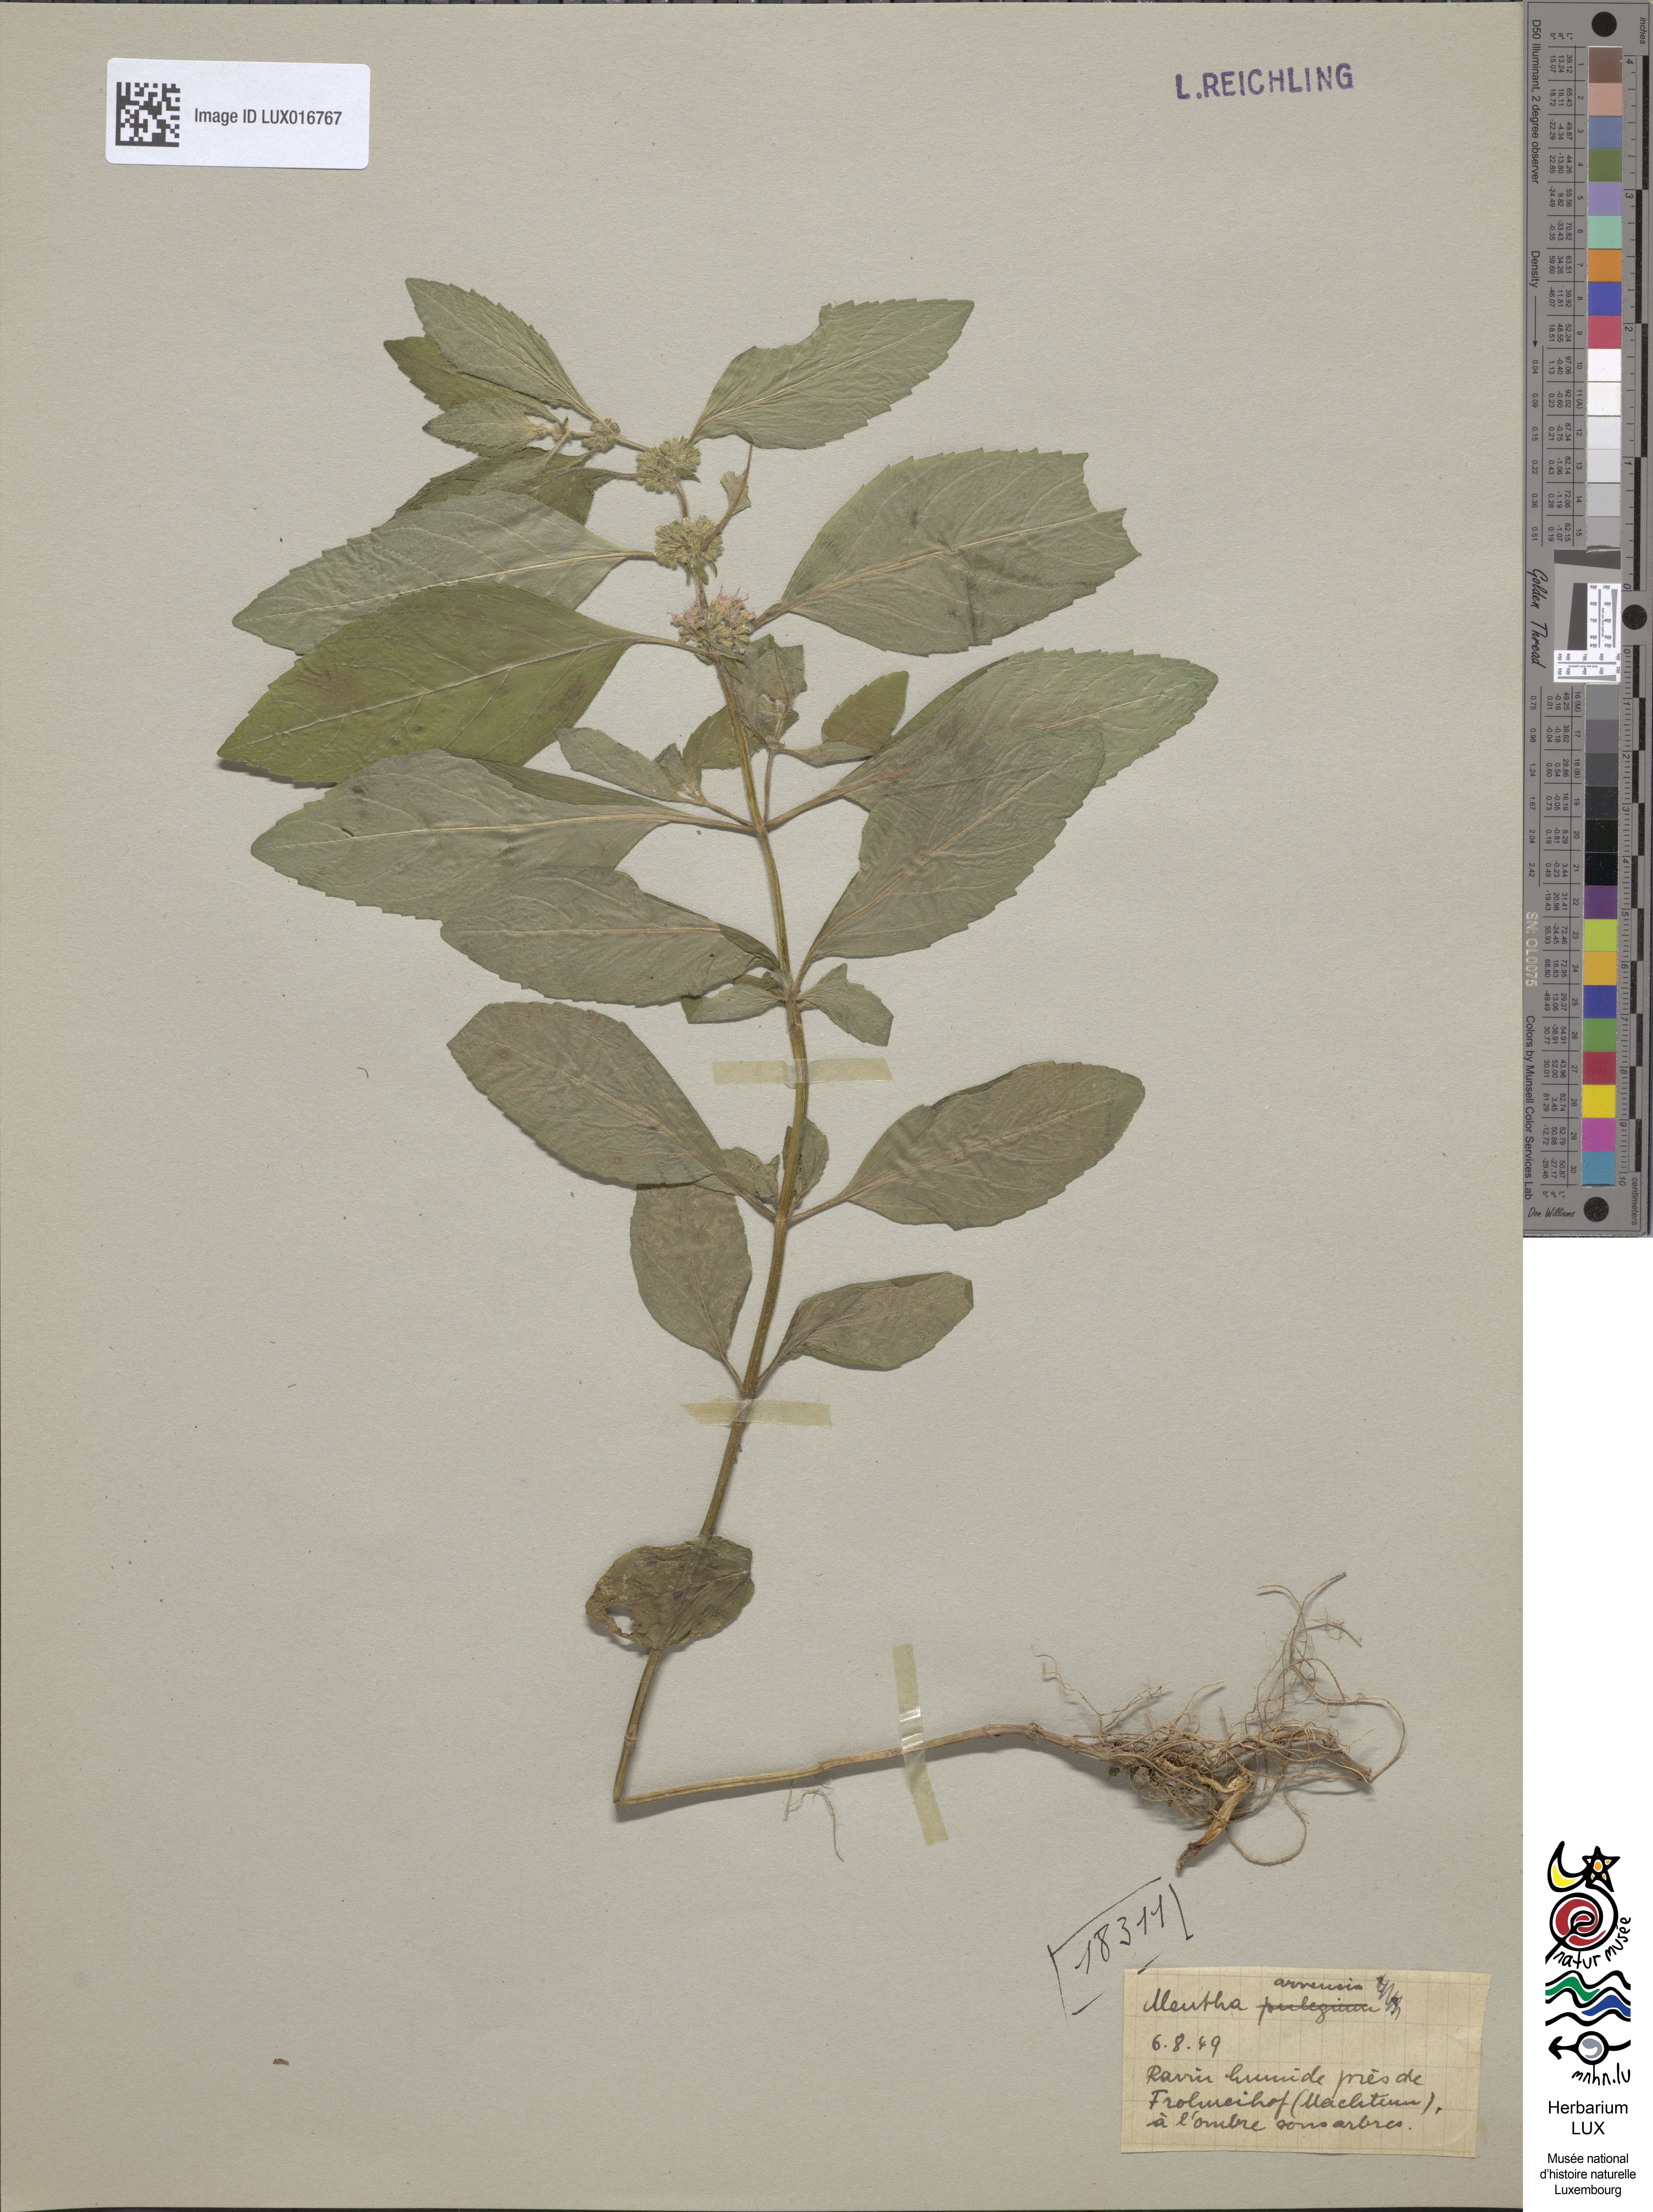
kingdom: Plantae
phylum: Tracheophyta
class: Magnoliopsida
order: Lamiales
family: Lamiaceae
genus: Mentha
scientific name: Mentha arvensis
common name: Corn mint
